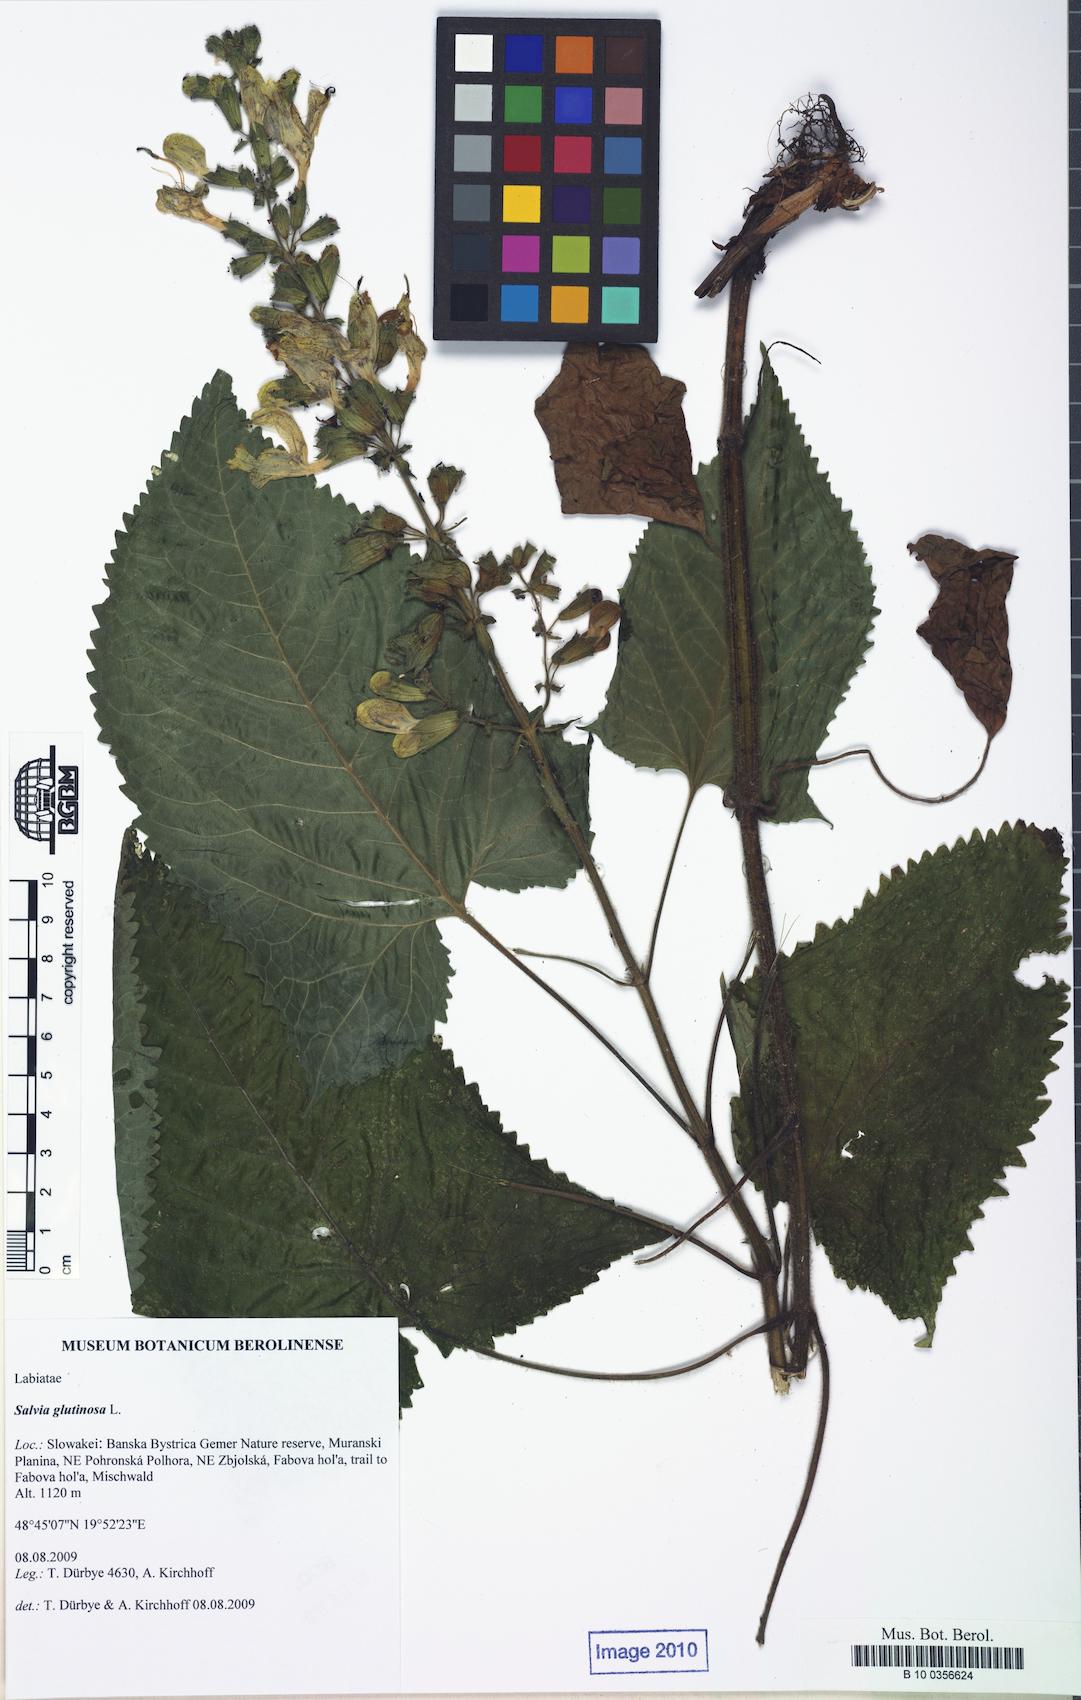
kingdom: Plantae
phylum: Tracheophyta
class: Magnoliopsida
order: Lamiales
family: Lamiaceae
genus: Salvia
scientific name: Salvia glutinosa
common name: Sticky clary
